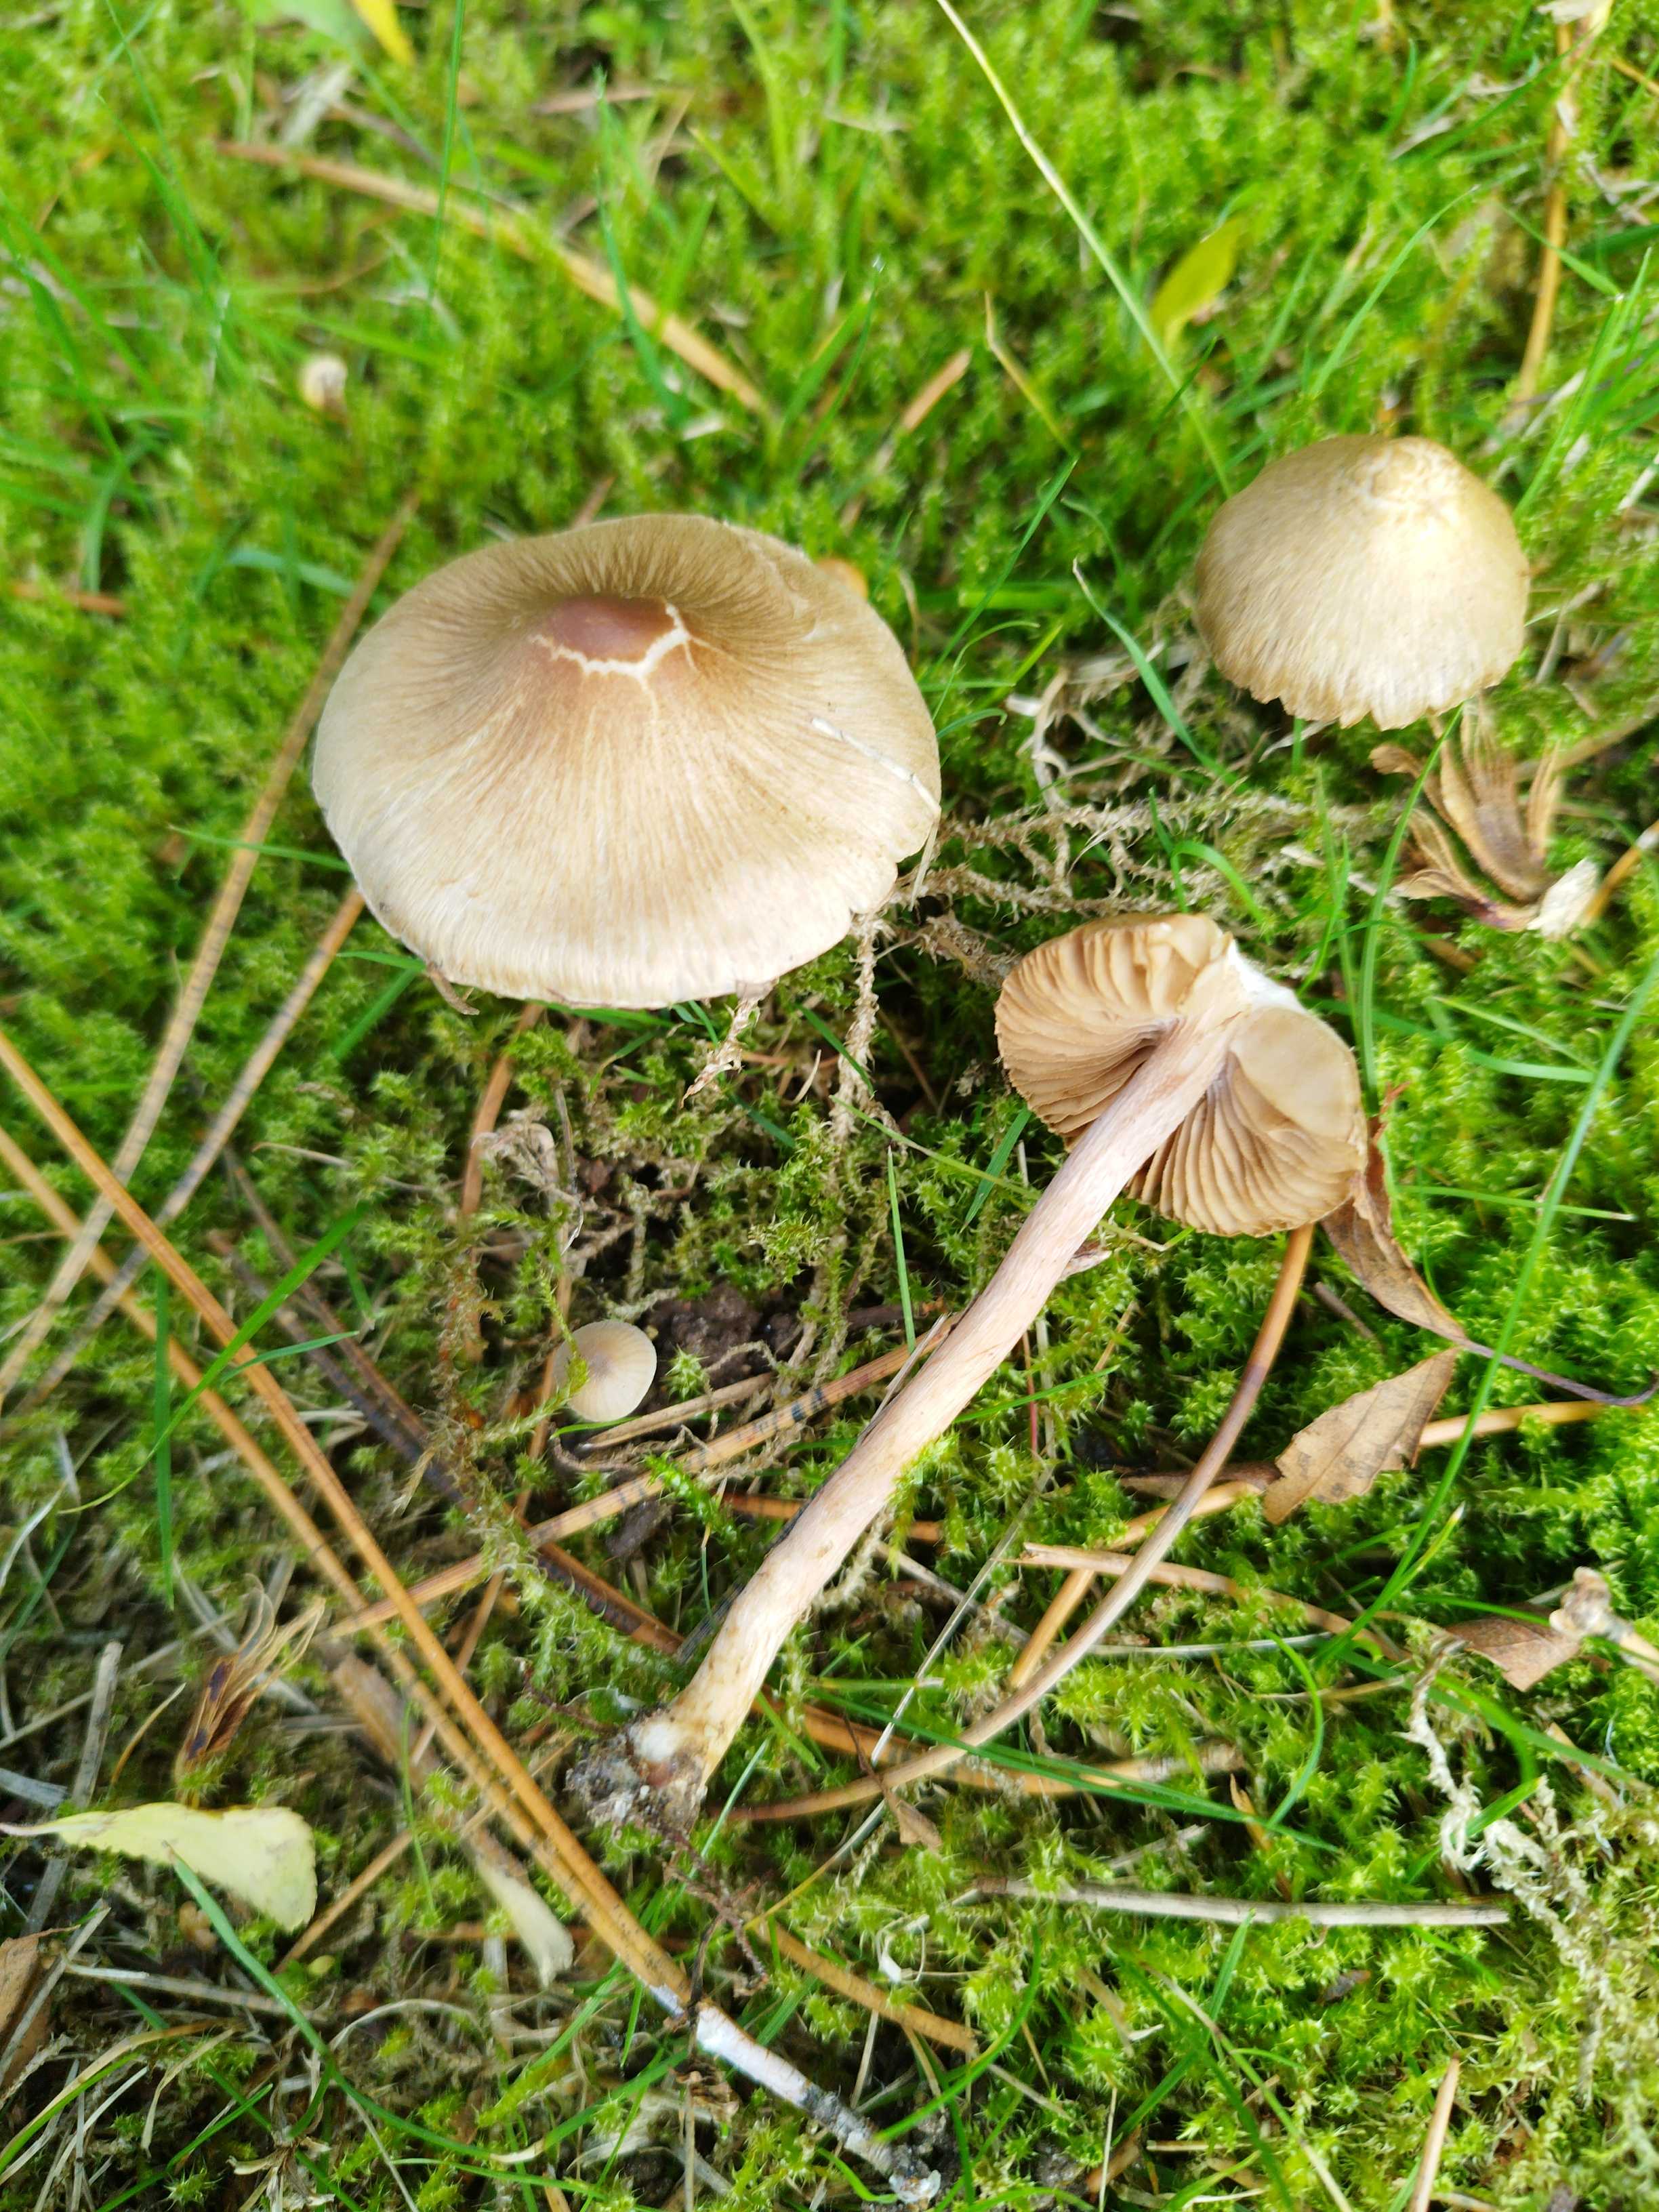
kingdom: Fungi
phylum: Basidiomycota
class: Agaricomycetes
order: Agaricales
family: Inocybaceae
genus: Inocybe
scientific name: Inocybe
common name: trævlhat
